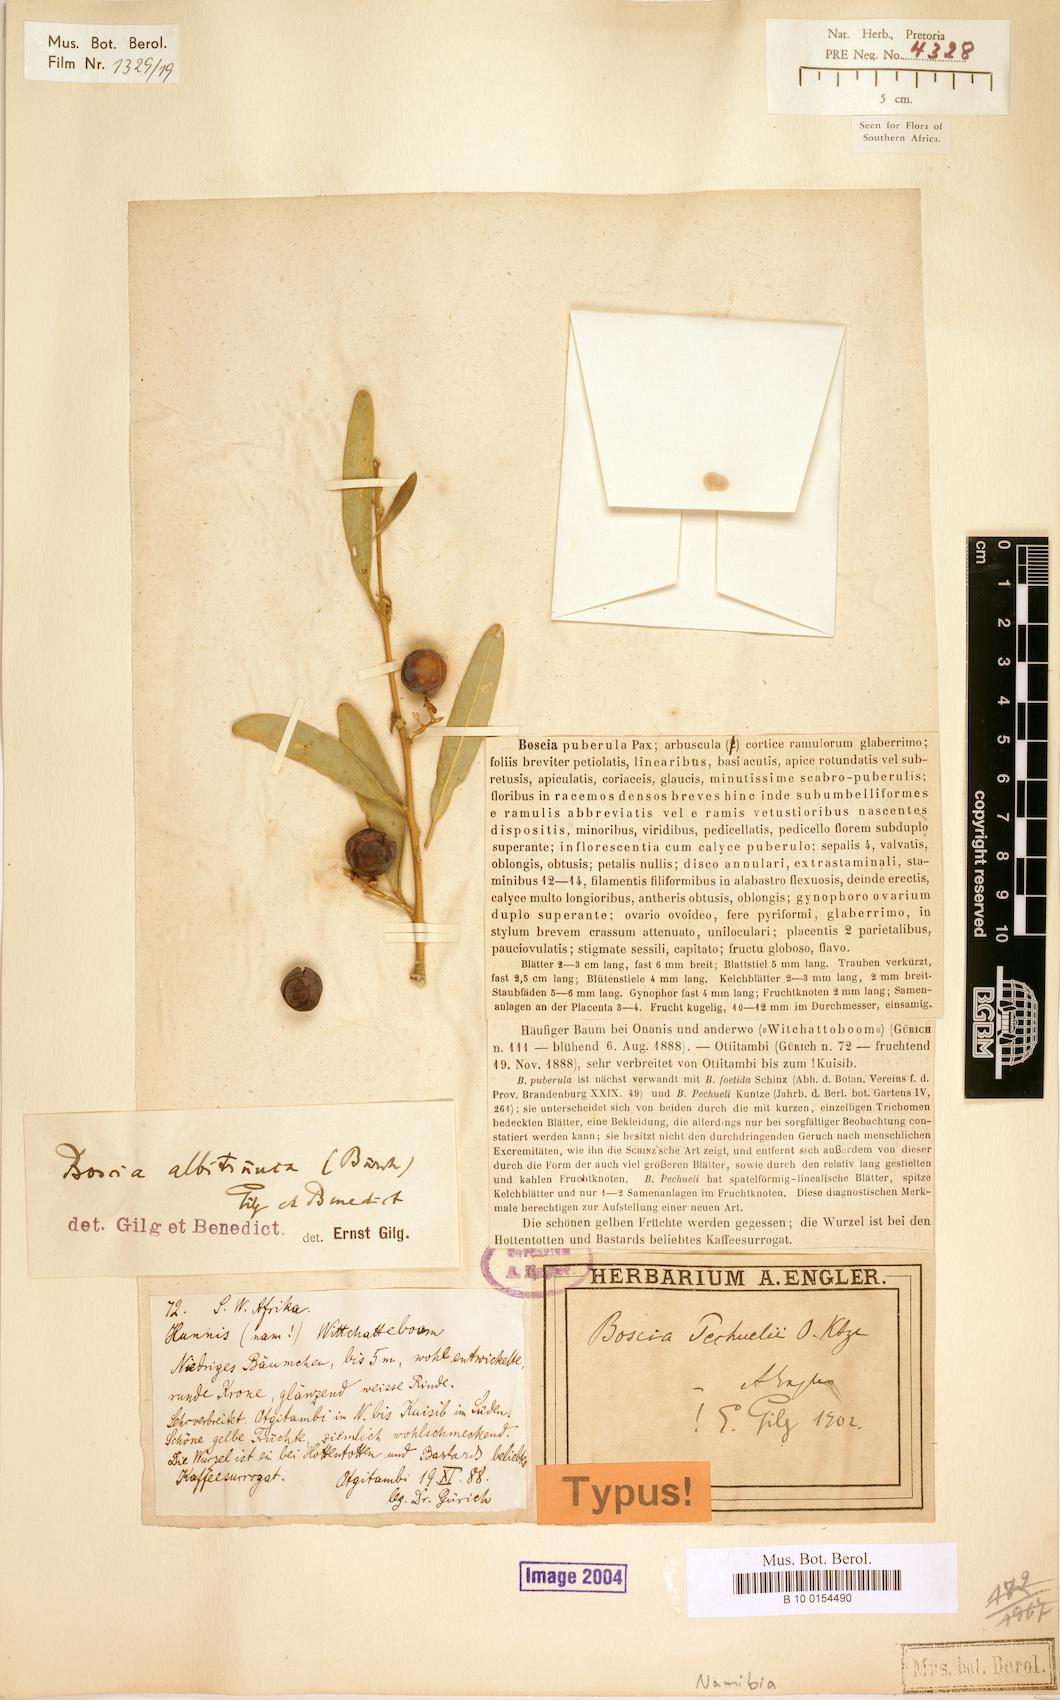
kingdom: Plantae
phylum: Tracheophyta
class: Magnoliopsida
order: Brassicales
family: Capparaceae
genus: Boscia
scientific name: Boscia albitrunca
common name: Caper bush
